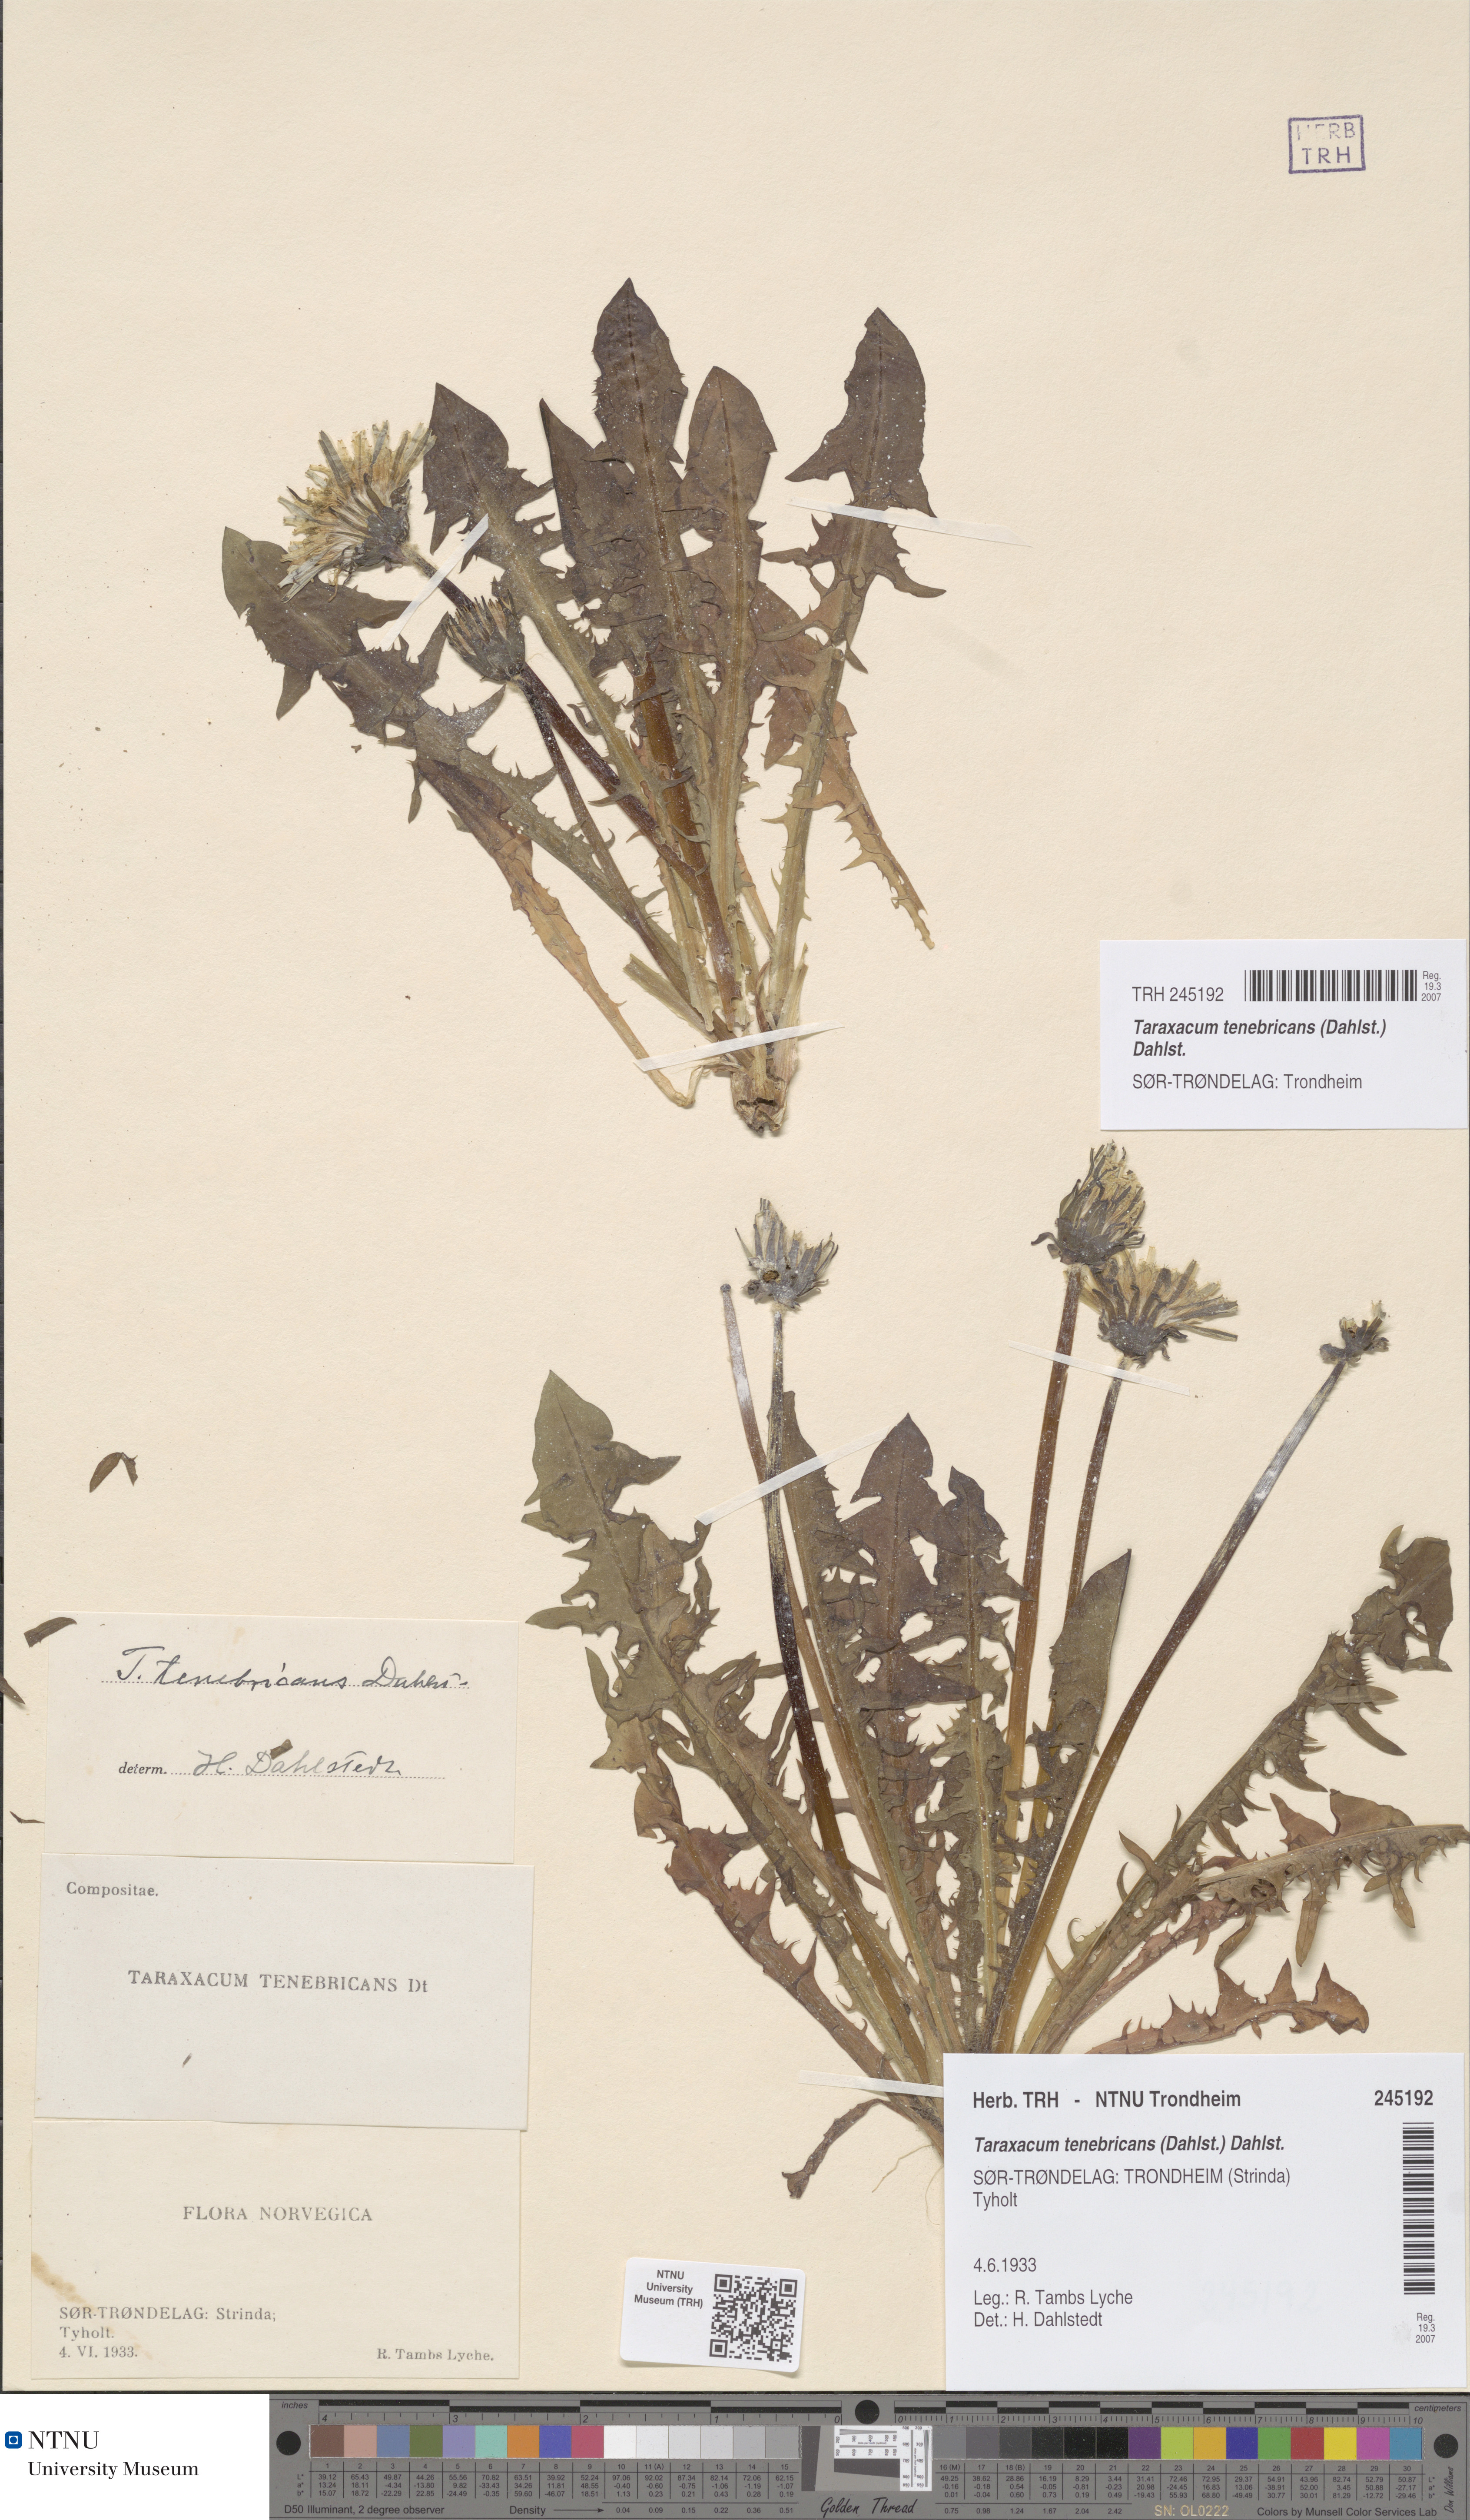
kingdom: Plantae
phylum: Tracheophyta
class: Magnoliopsida
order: Asterales
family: Asteraceae
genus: Taraxacum
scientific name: Taraxacum tenebricans
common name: Shiny-leaved dandelion
